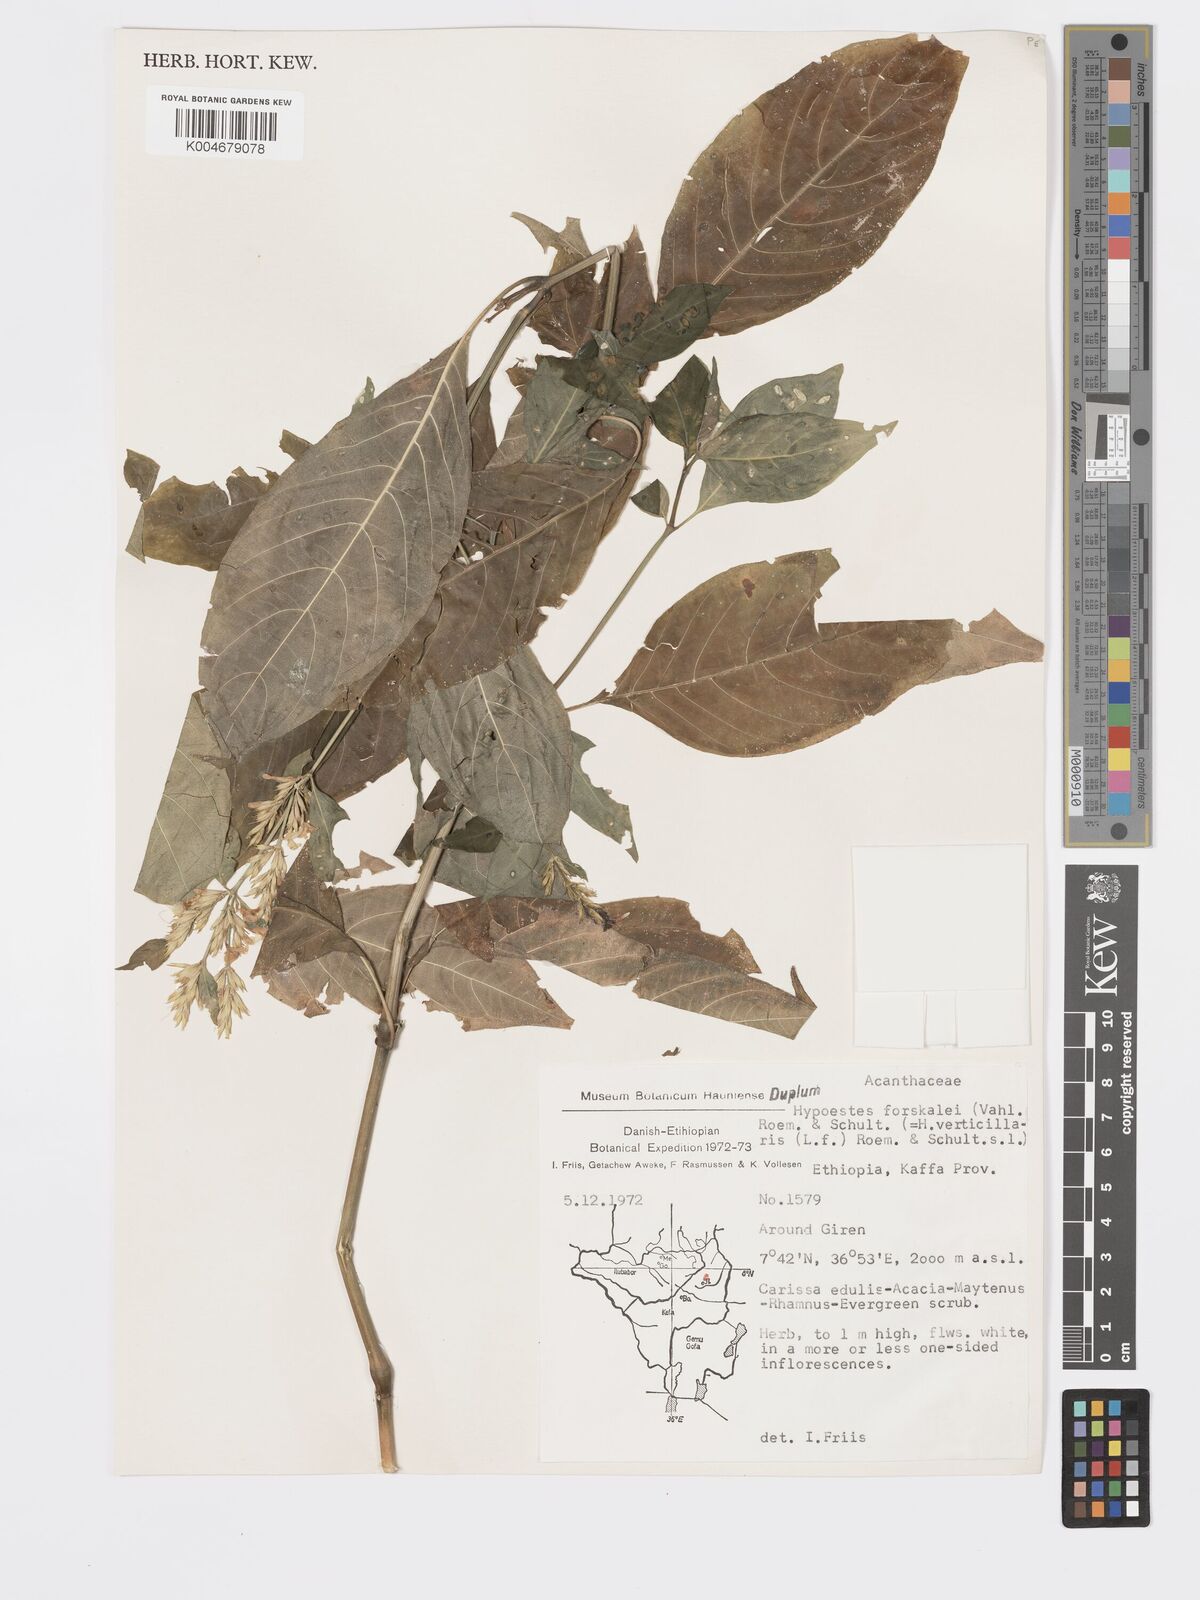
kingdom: Plantae
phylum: Tracheophyta
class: Magnoliopsida
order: Lamiales
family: Acanthaceae
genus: Hypoestes
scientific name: Hypoestes forskaolii
